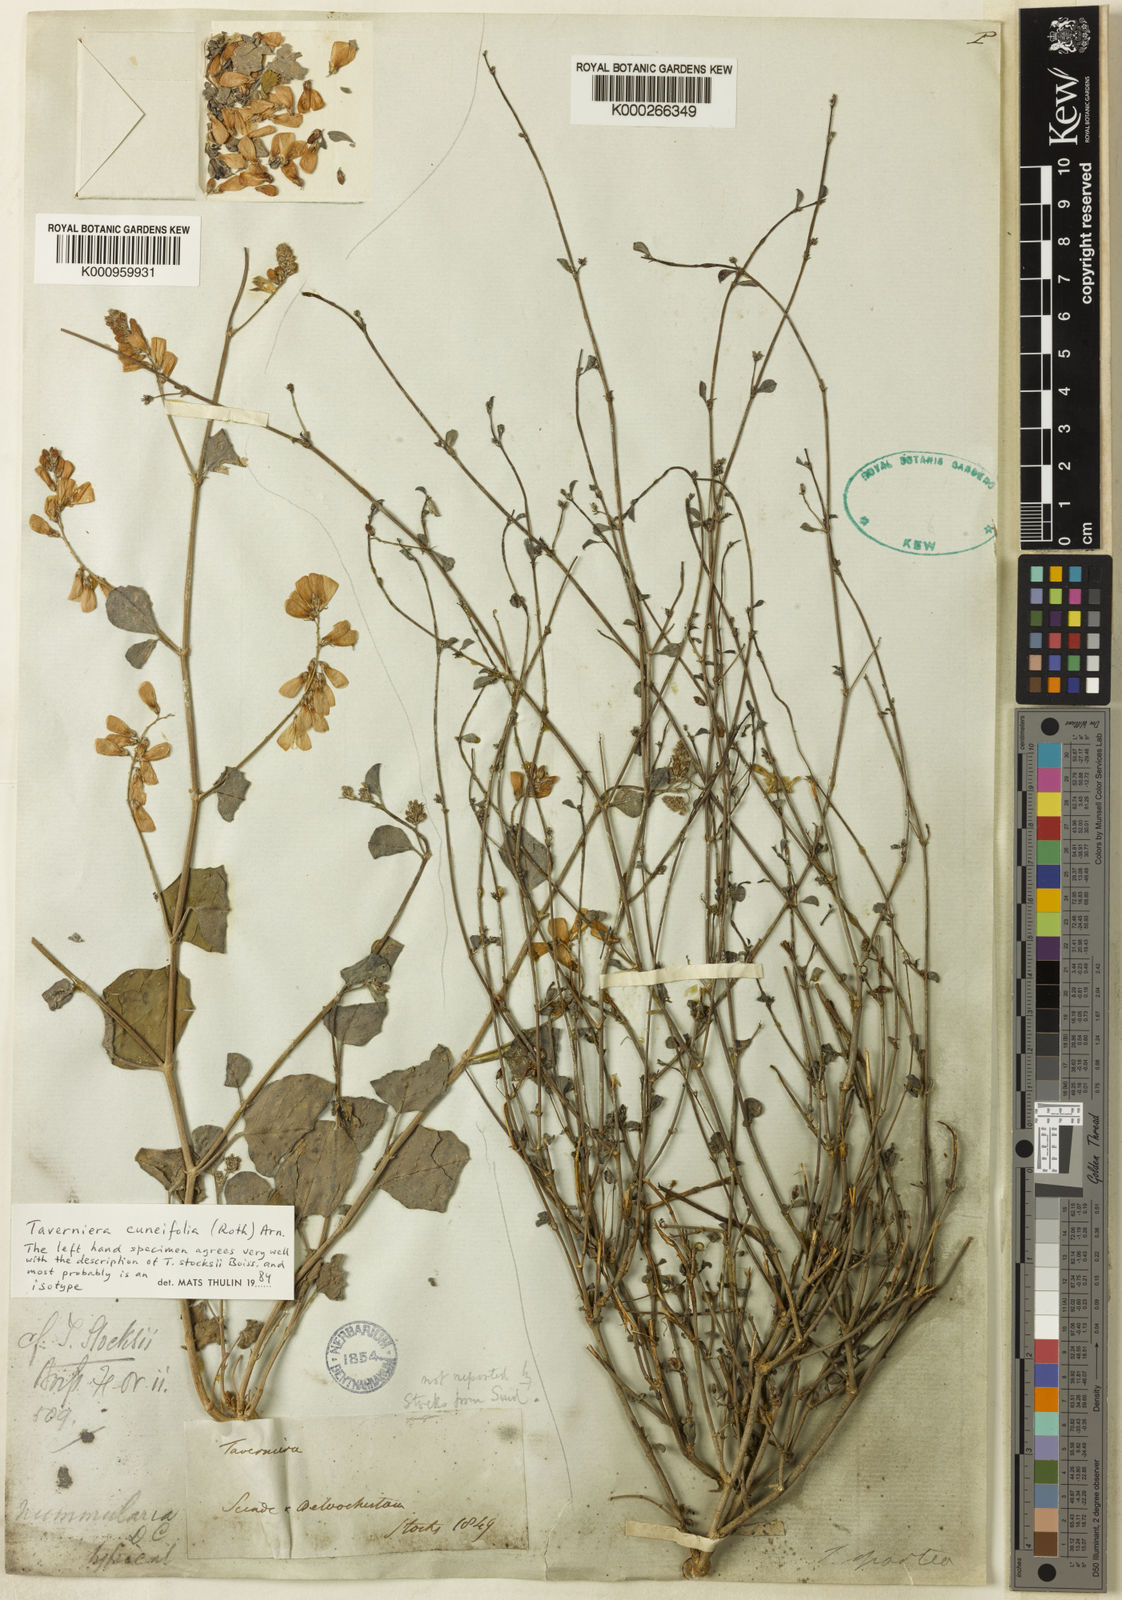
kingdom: Plantae
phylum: Tracheophyta
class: Magnoliopsida
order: Fabales
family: Fabaceae
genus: Taverniera
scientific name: Taverniera cuneifolia
